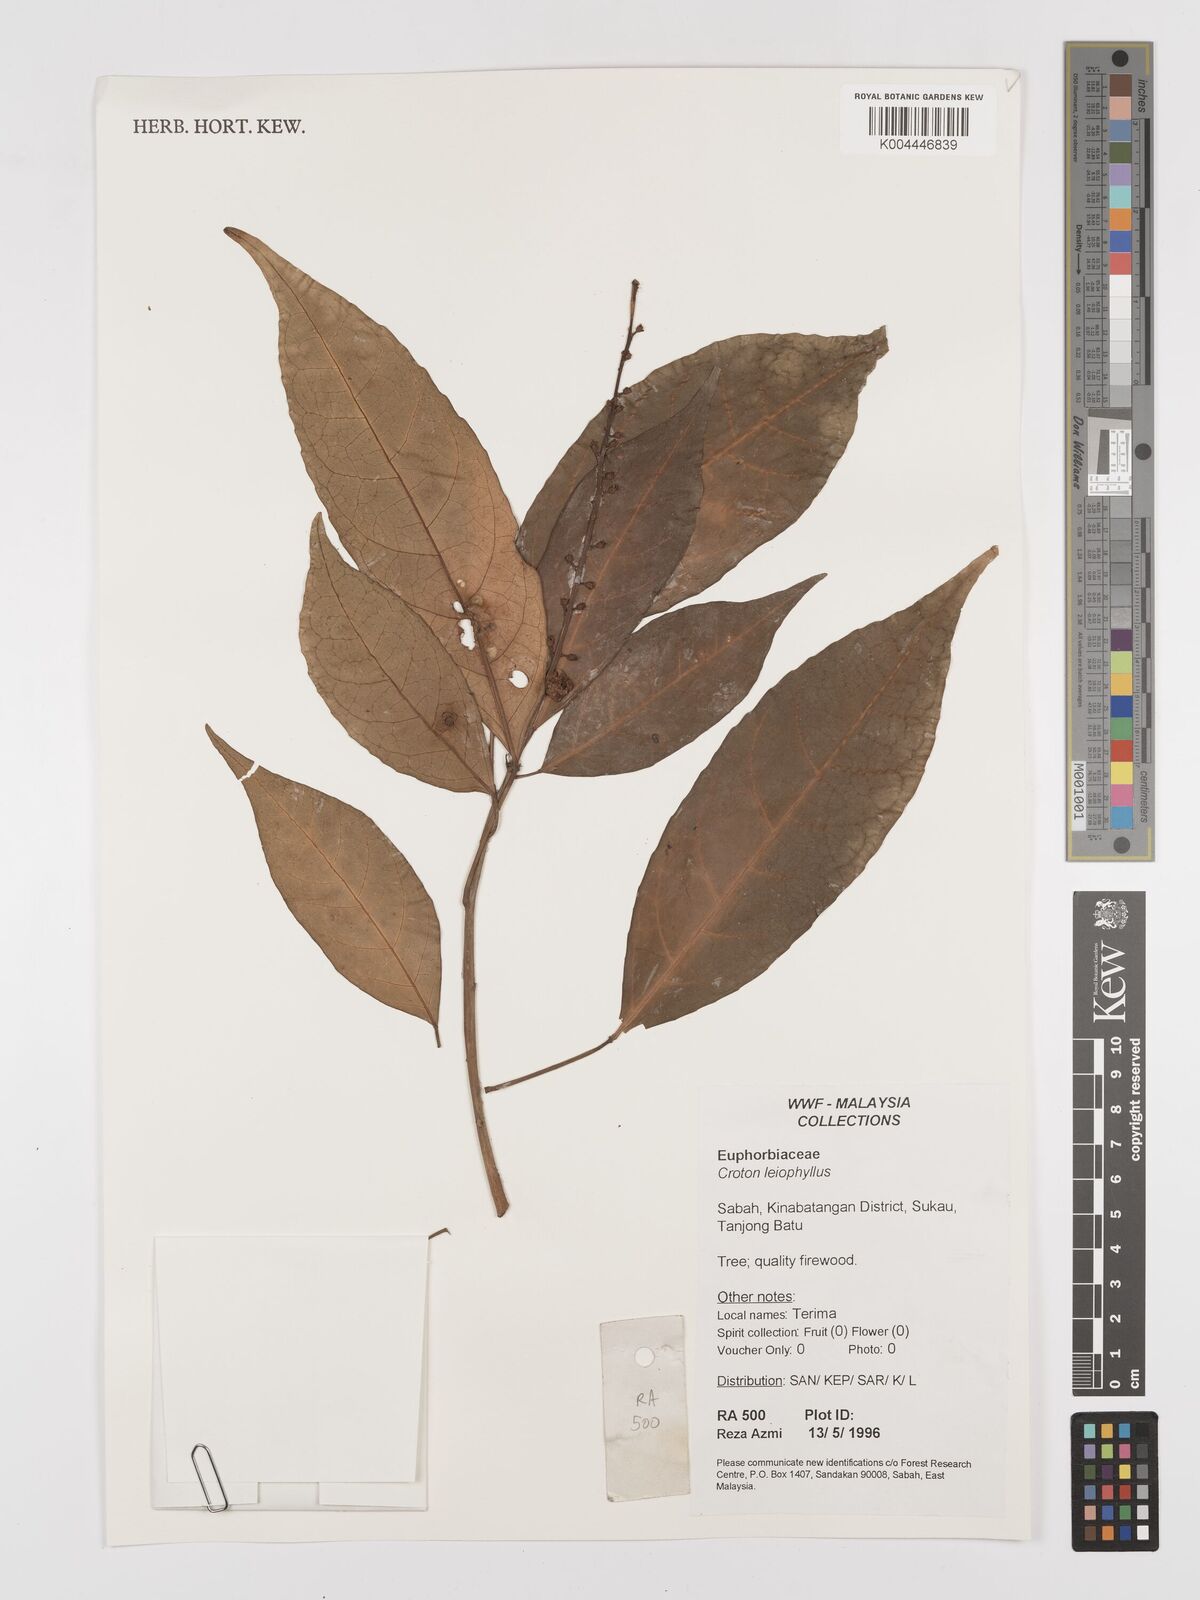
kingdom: Plantae
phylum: Tracheophyta
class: Magnoliopsida
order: Malpighiales
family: Euphorbiaceae
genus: Croton
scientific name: Croton leiophyllus
